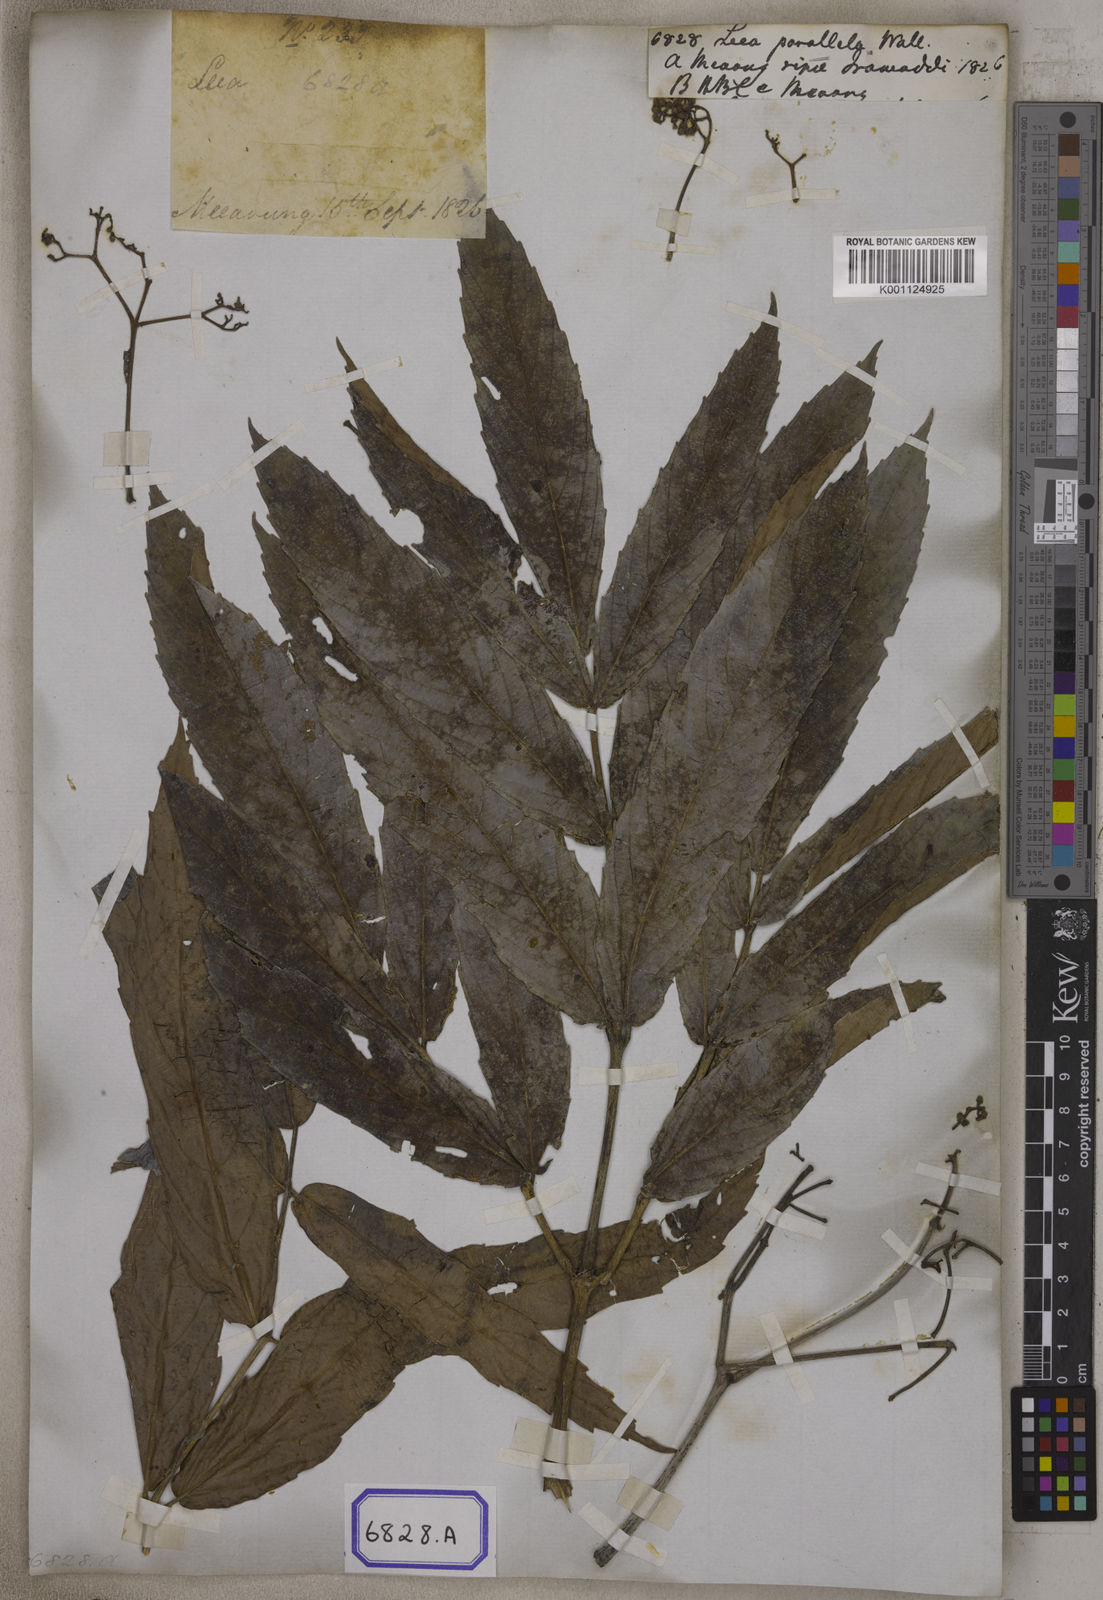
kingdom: Plantae
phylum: Tracheophyta
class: Magnoliopsida
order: Vitales
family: Vitaceae
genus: Leea
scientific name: Leea macrophylla
